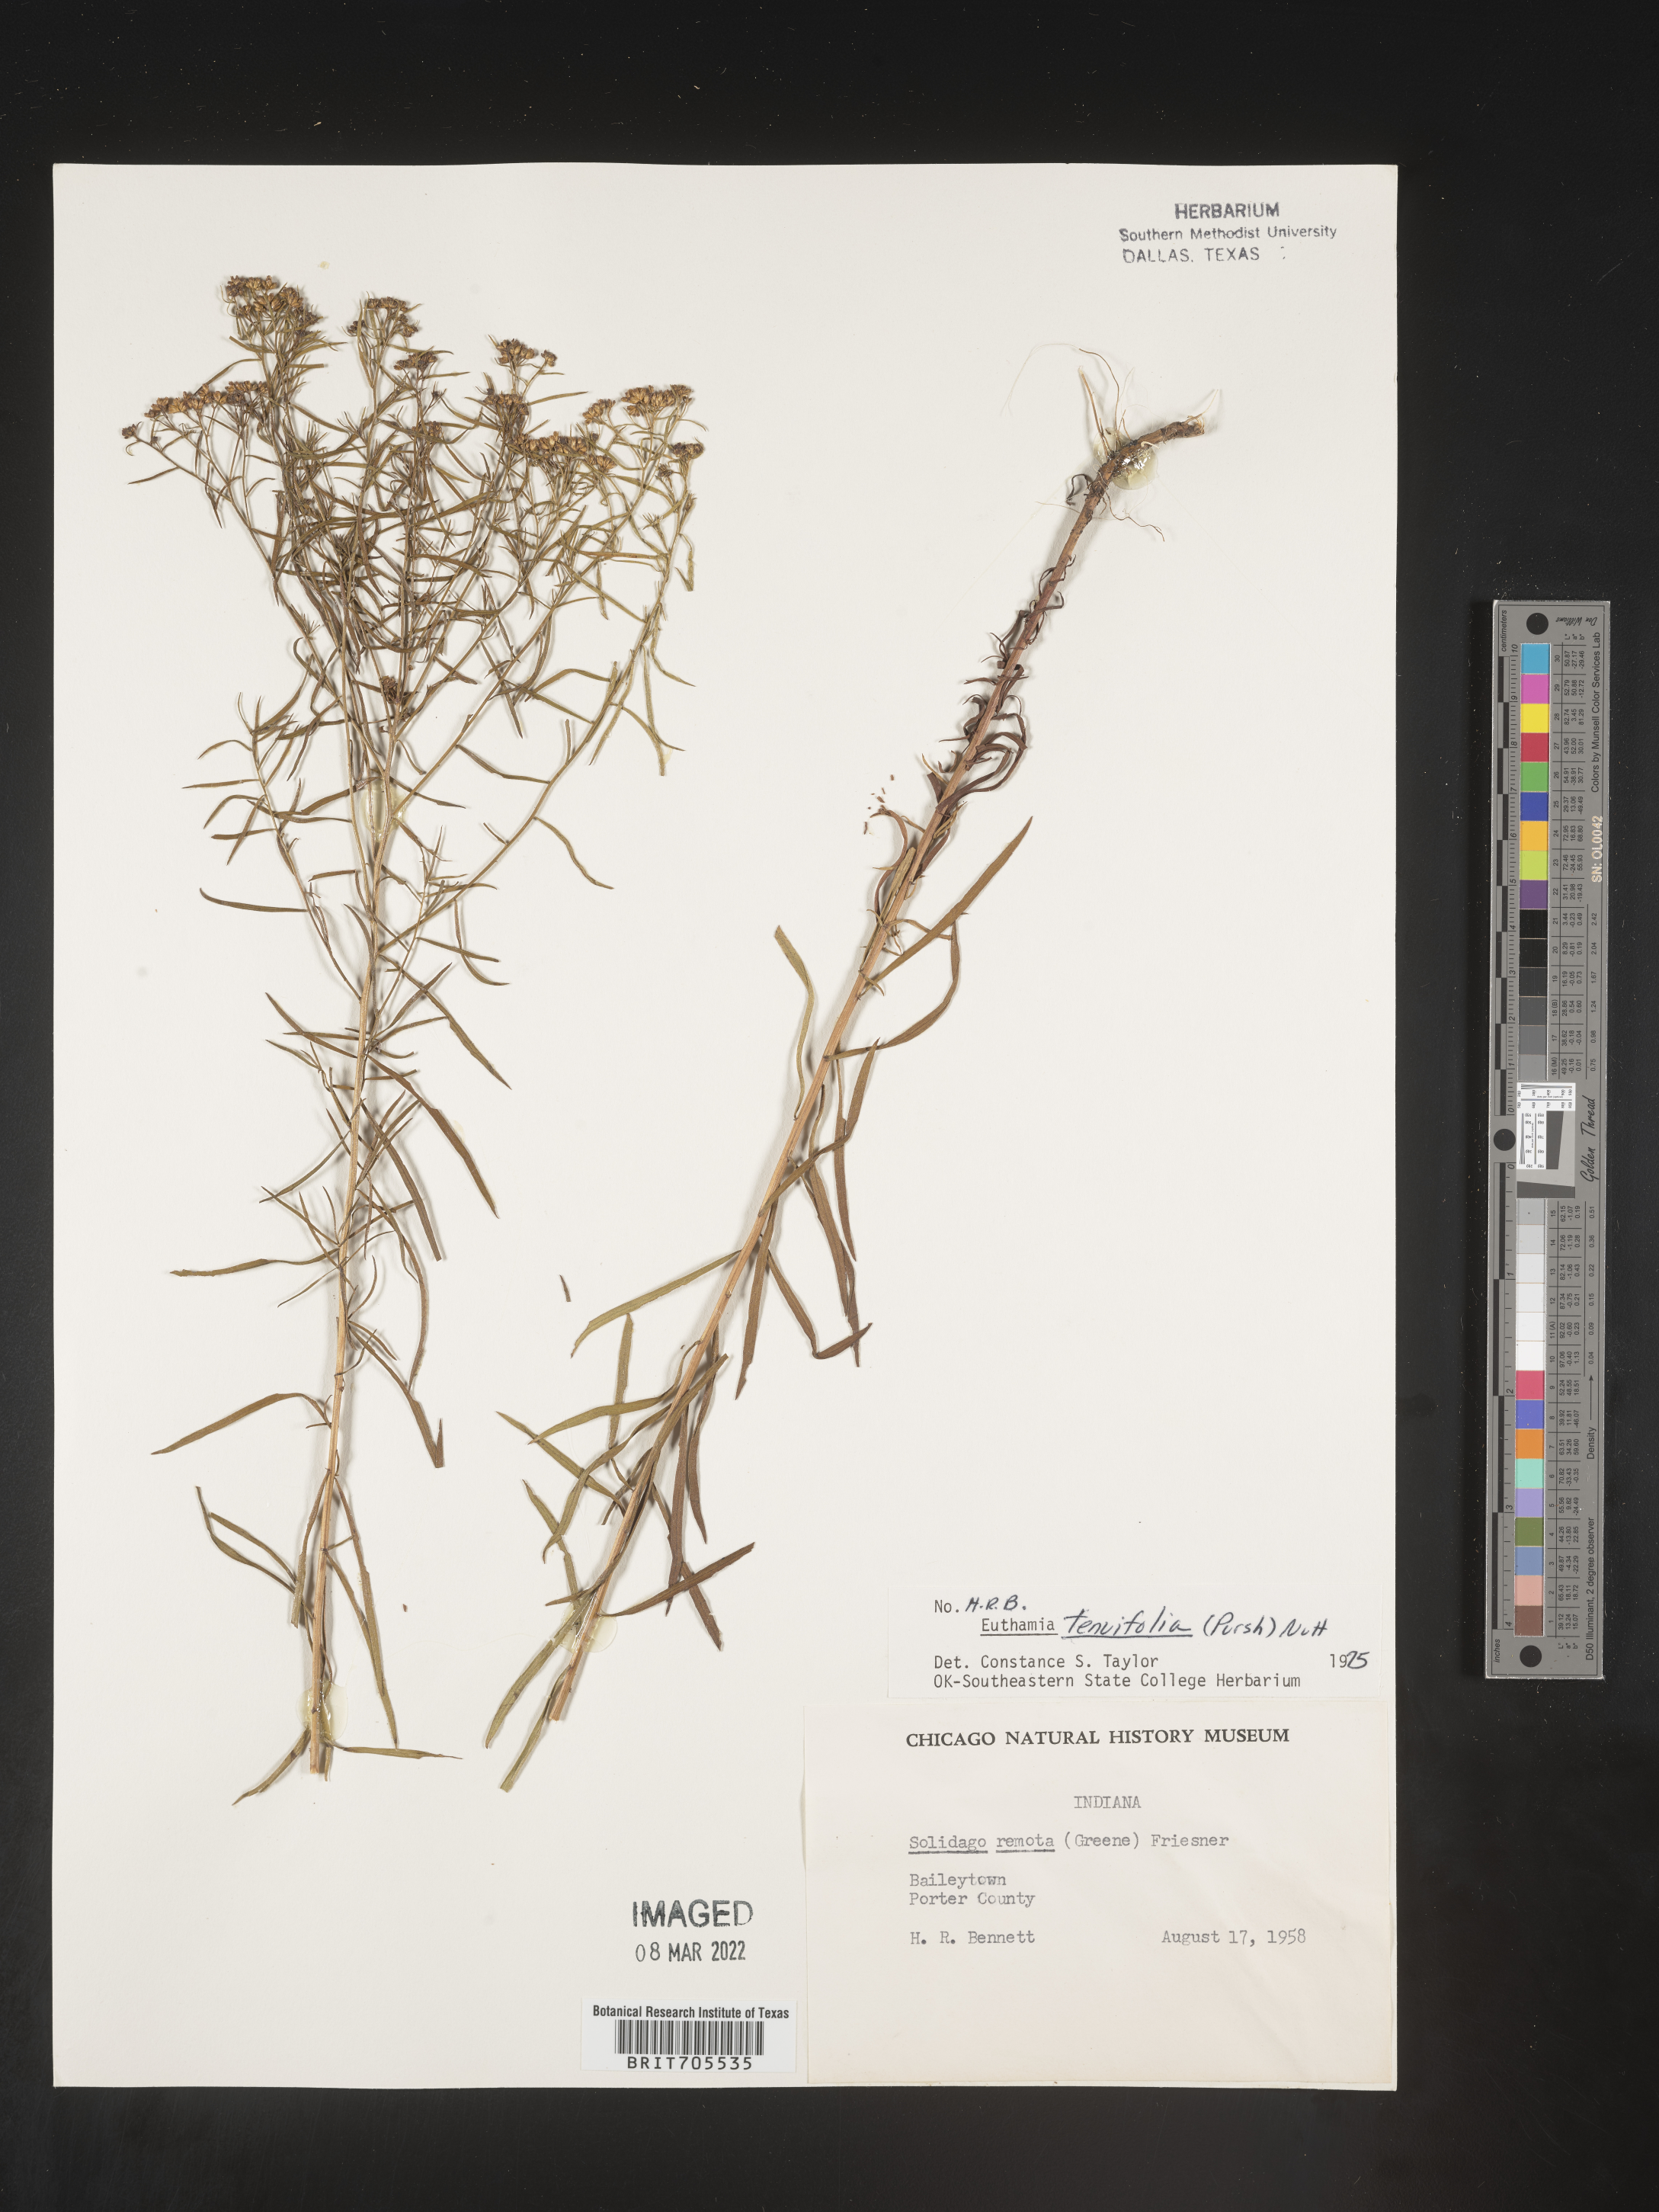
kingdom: Plantae
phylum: Tracheophyta
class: Magnoliopsida
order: Asterales
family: Asteraceae
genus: Euthamia
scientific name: Euthamia caroliniana
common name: Coastal plain goldentop
